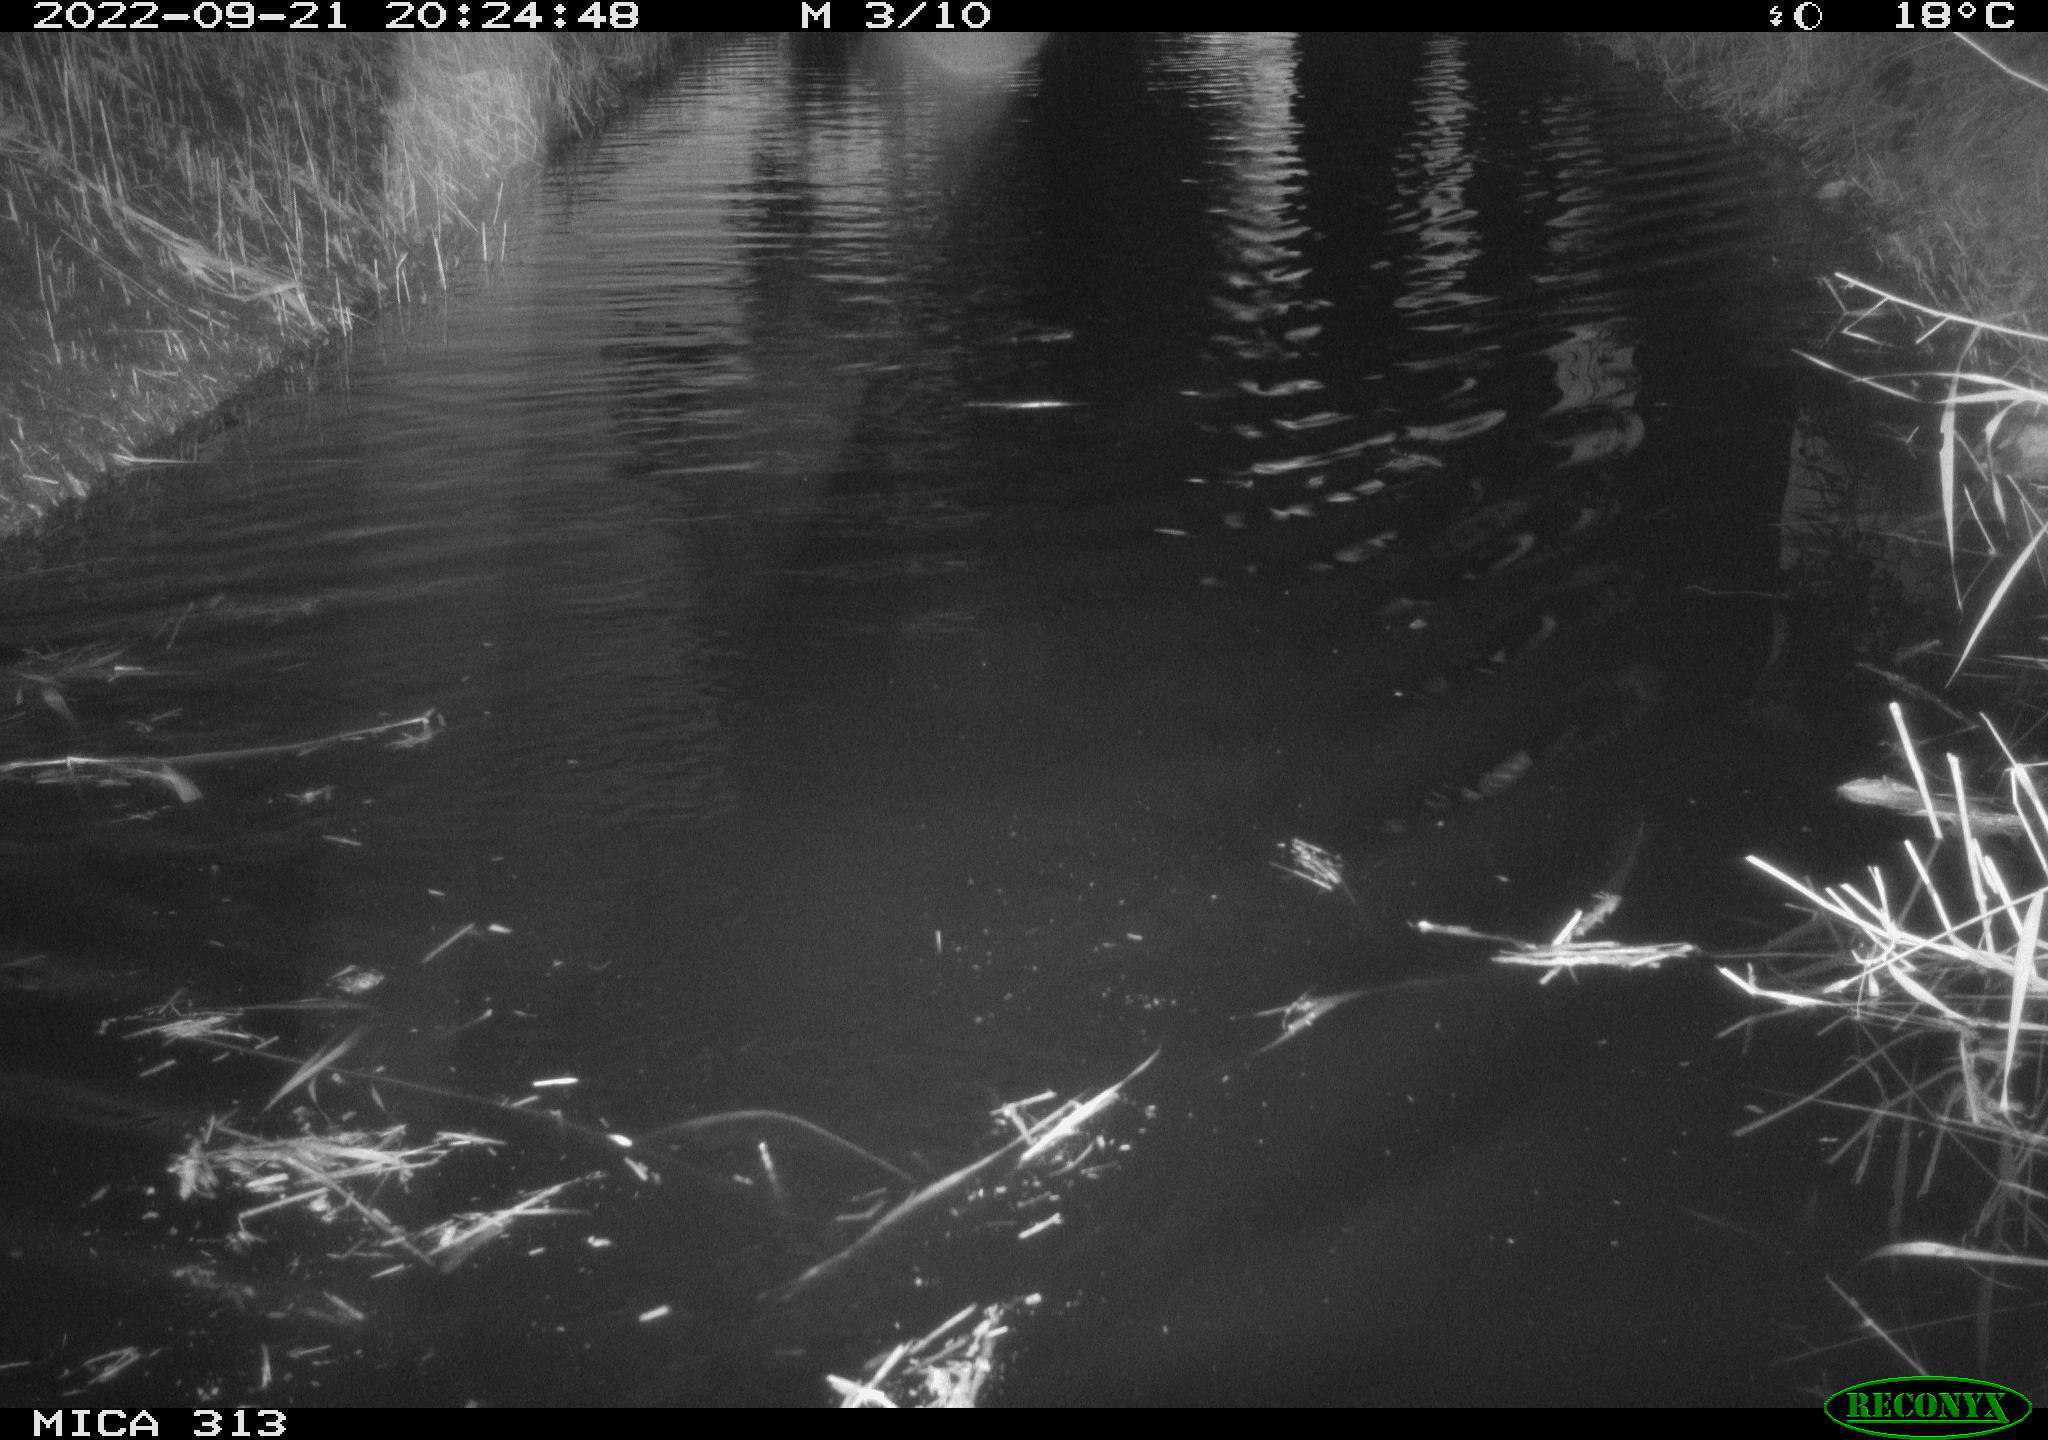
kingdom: Animalia
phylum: Chordata
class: Mammalia
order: Rodentia
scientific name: Rodentia
